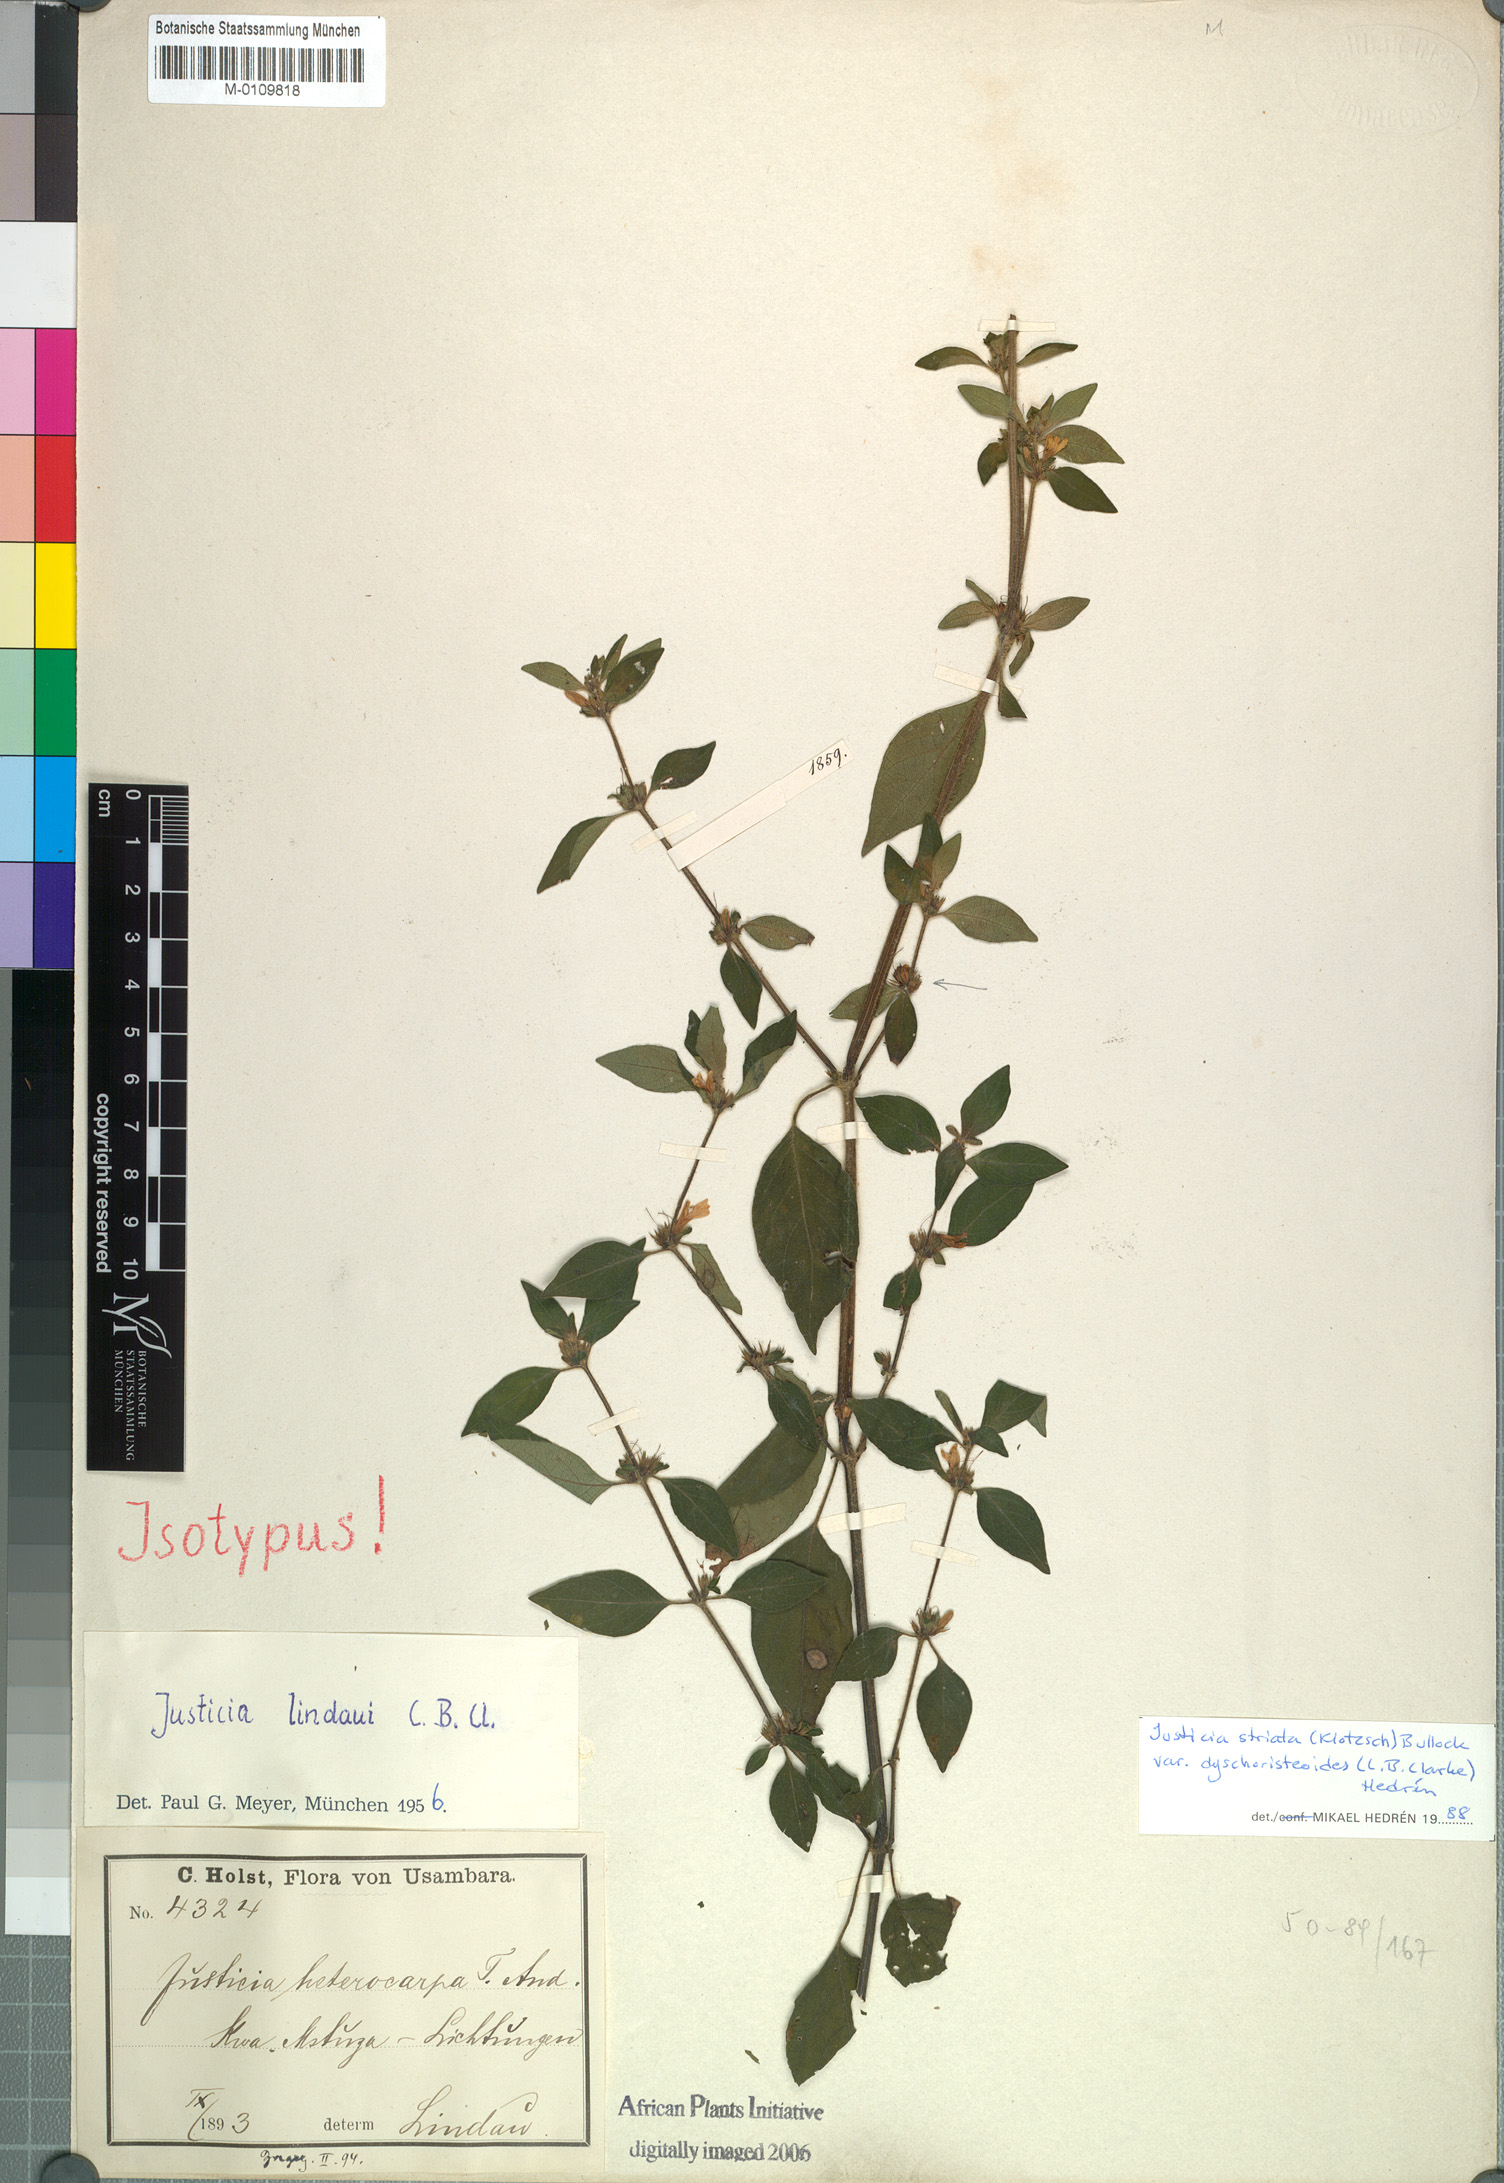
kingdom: Plantae
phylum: Tracheophyta
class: Magnoliopsida
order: Lamiales
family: Acanthaceae
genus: Justicia
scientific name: Justicia striata
